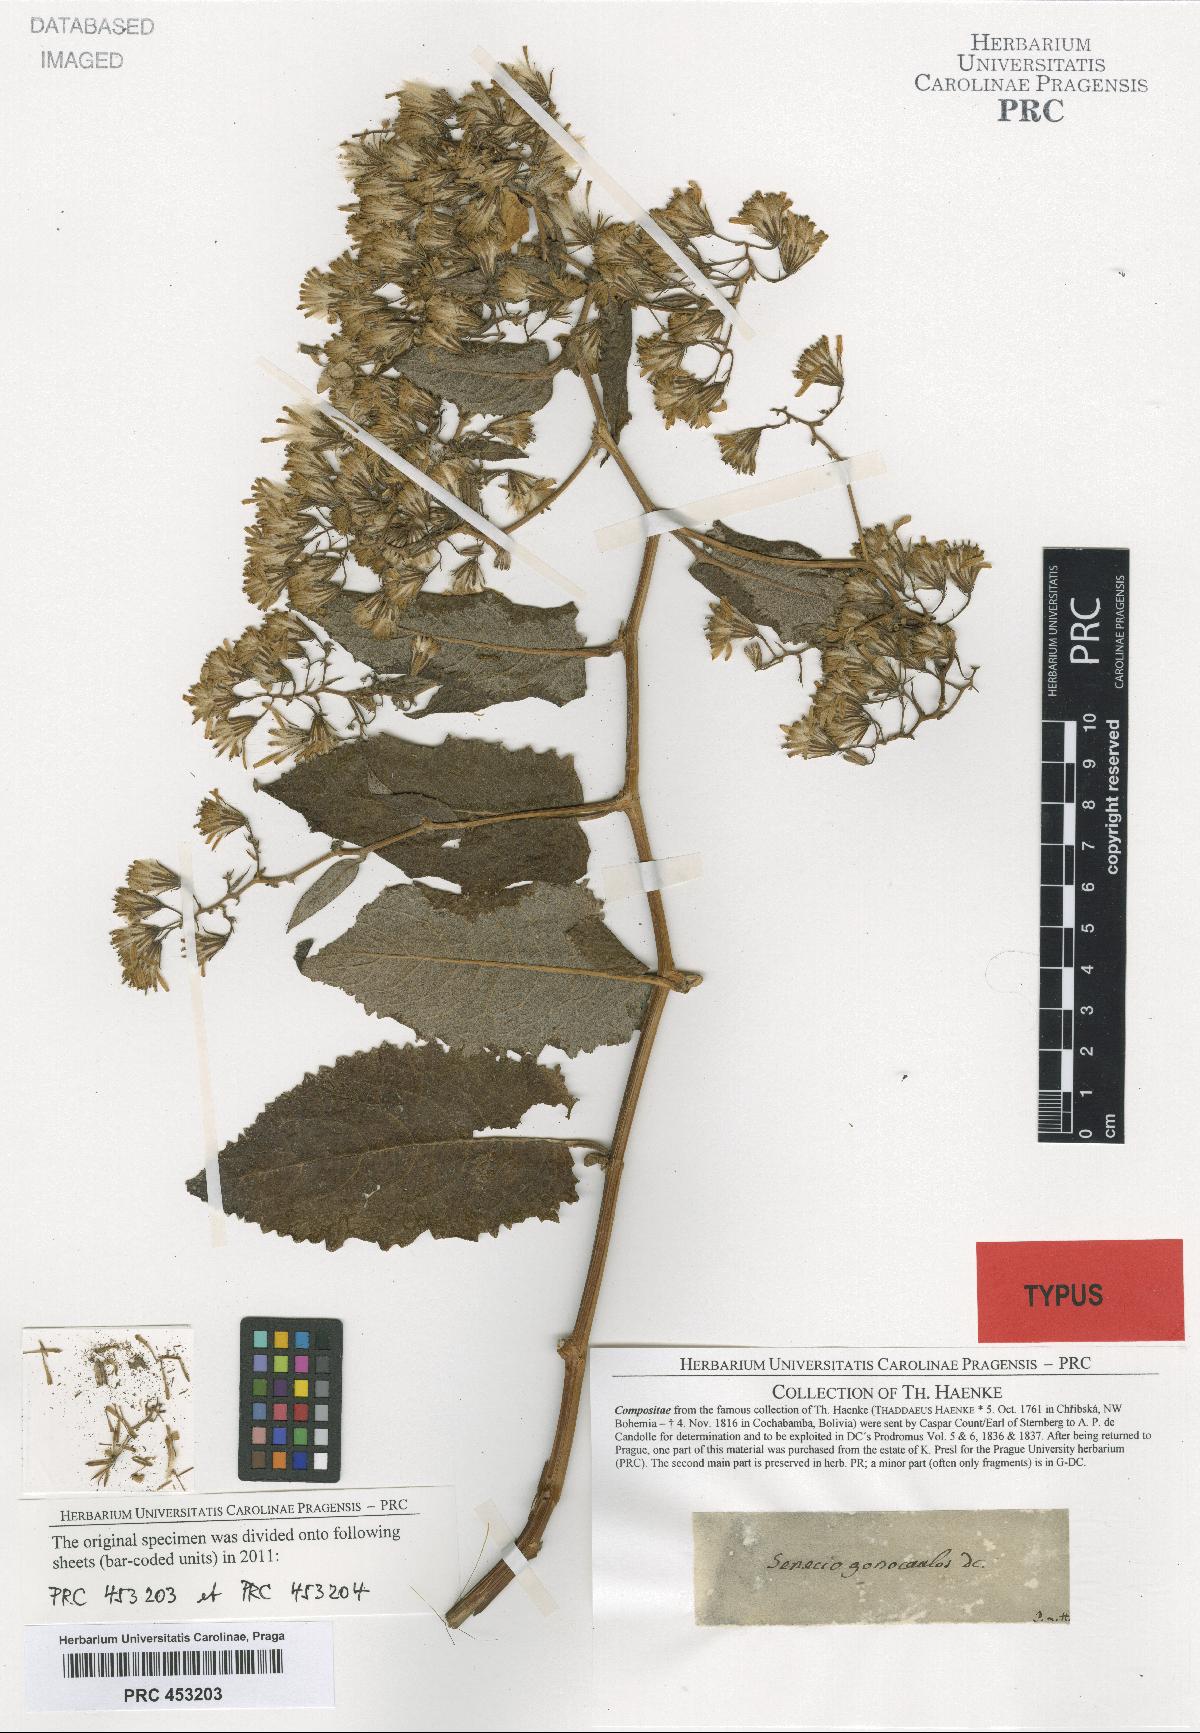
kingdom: Plantae
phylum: Tracheophyta
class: Magnoliopsida
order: Asterales
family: Asteraceae
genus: Pentacalia
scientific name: Pentacalia gonocaulos
